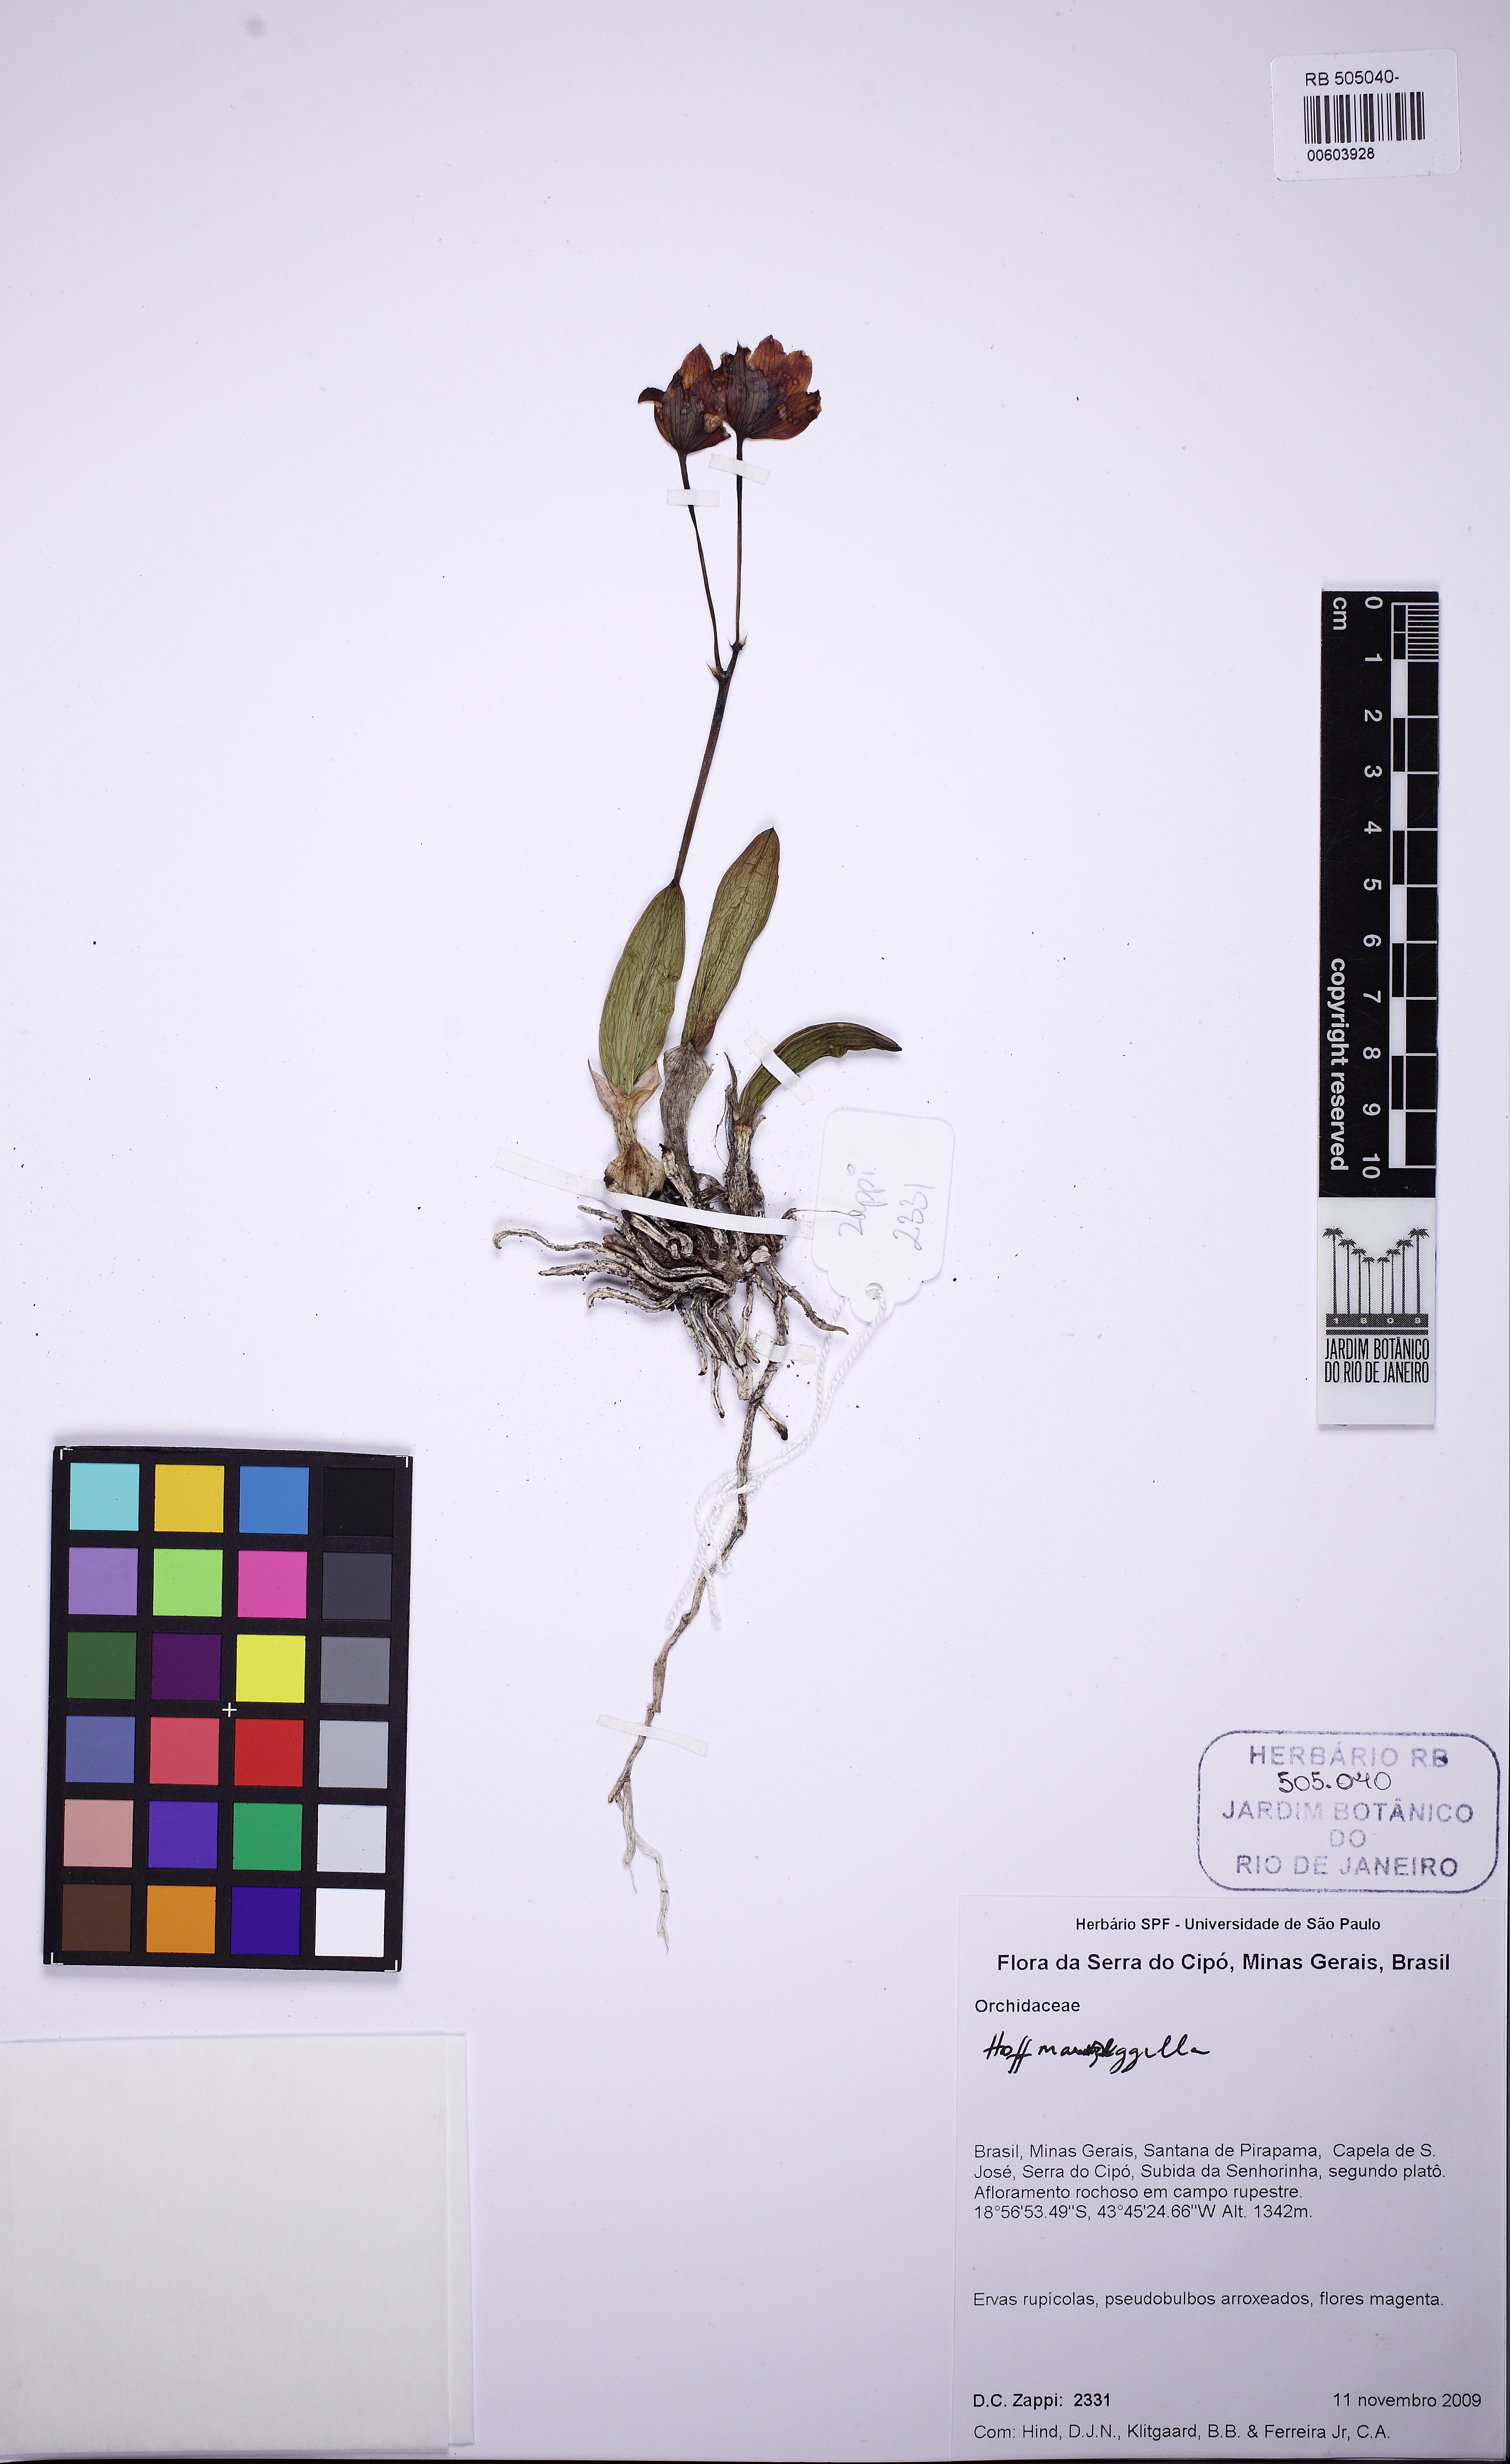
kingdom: Plantae
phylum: Tracheophyta
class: Liliopsida
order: Asparagales
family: Orchidaceae
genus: Cattleya
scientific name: Cattleya ghillanyi
